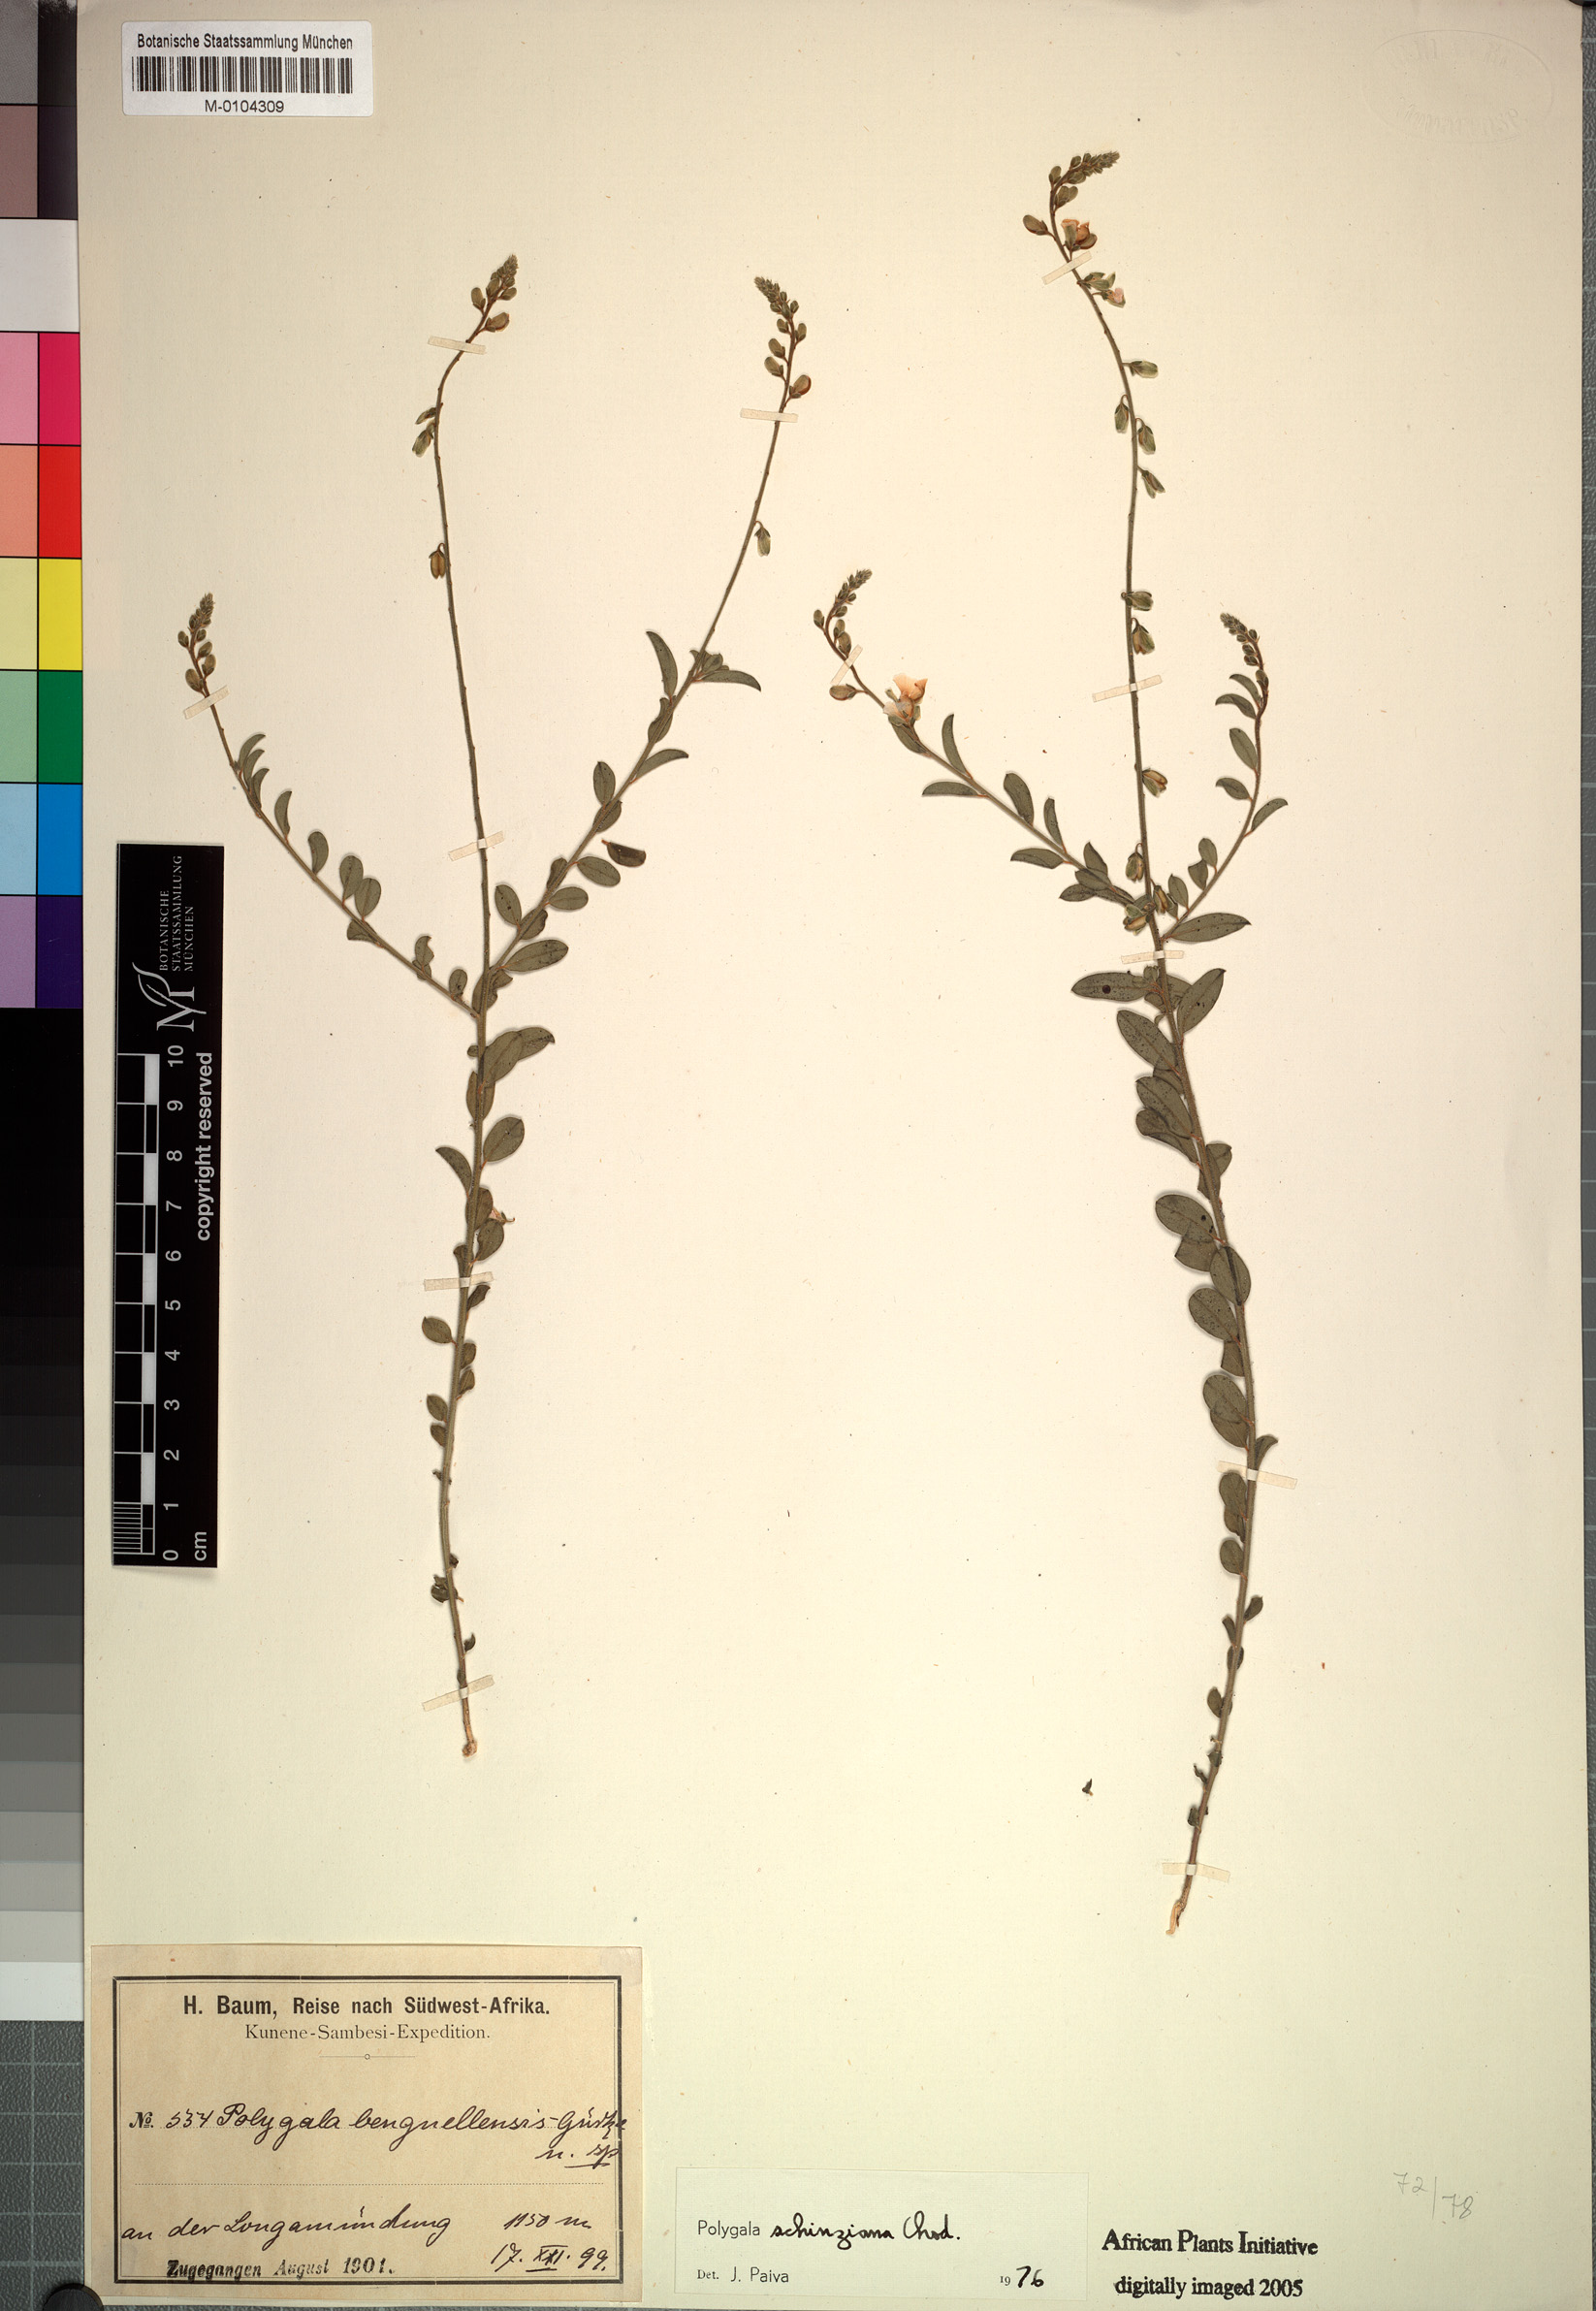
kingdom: Plantae
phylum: Tracheophyta
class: Magnoliopsida
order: Fabales
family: Polygalaceae
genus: Polygala
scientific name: Polygala schinziana
